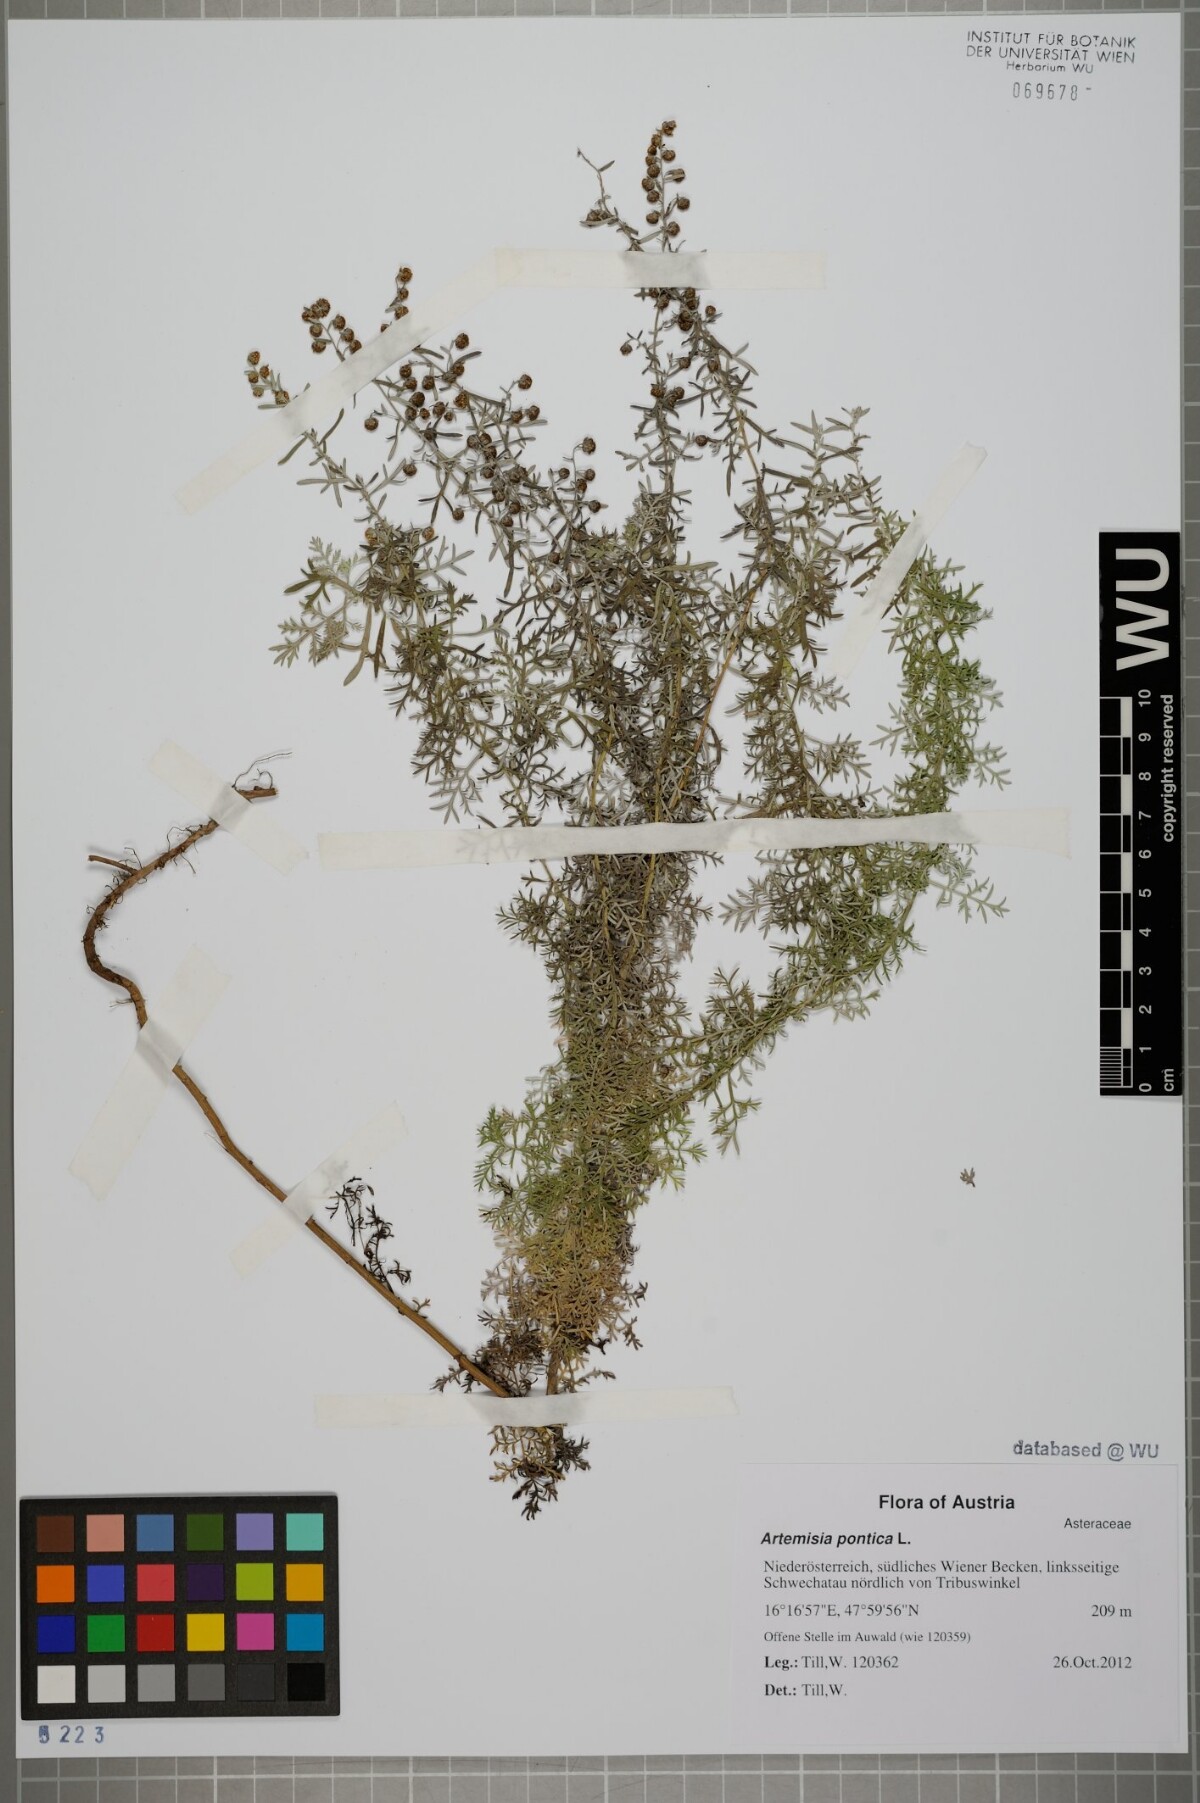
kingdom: Plantae
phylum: Tracheophyta
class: Magnoliopsida
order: Asterales
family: Asteraceae
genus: Artemisia
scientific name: Artemisia pontica
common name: Roman wormwood
